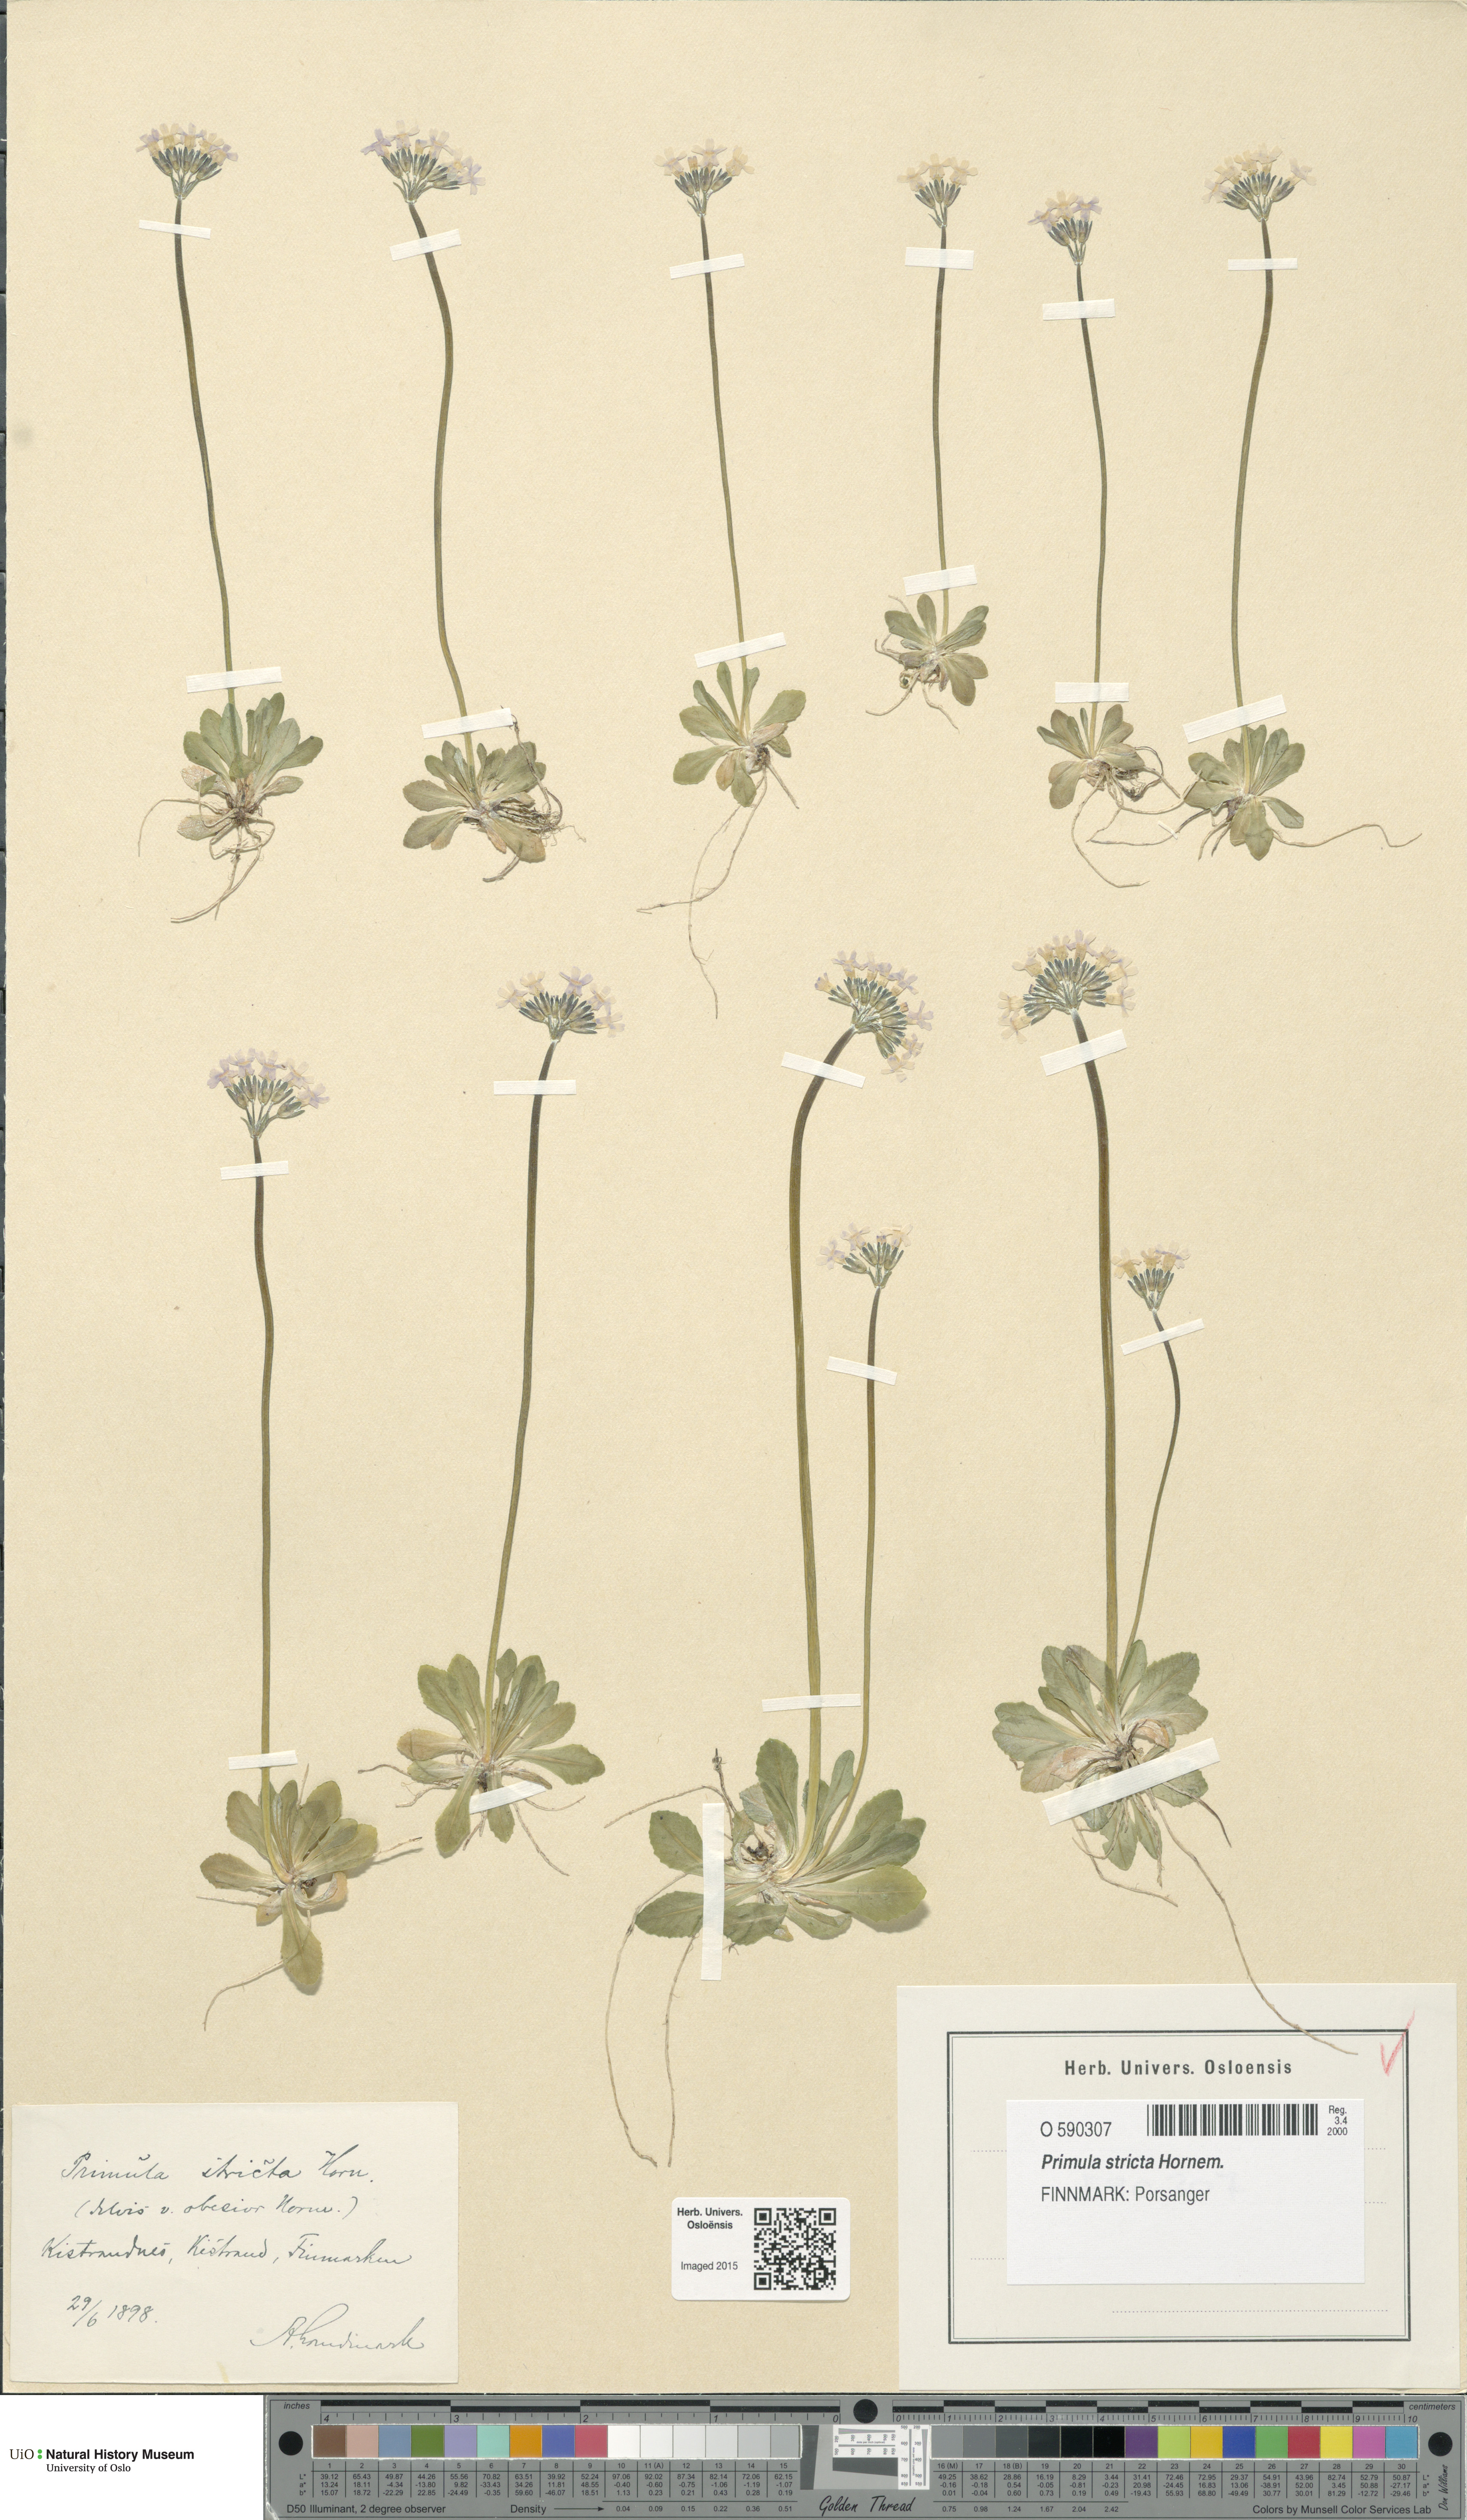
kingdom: Plantae
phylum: Tracheophyta
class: Magnoliopsida
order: Ericales
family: Primulaceae
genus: Primula
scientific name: Primula stricta
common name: Coastal primrose
